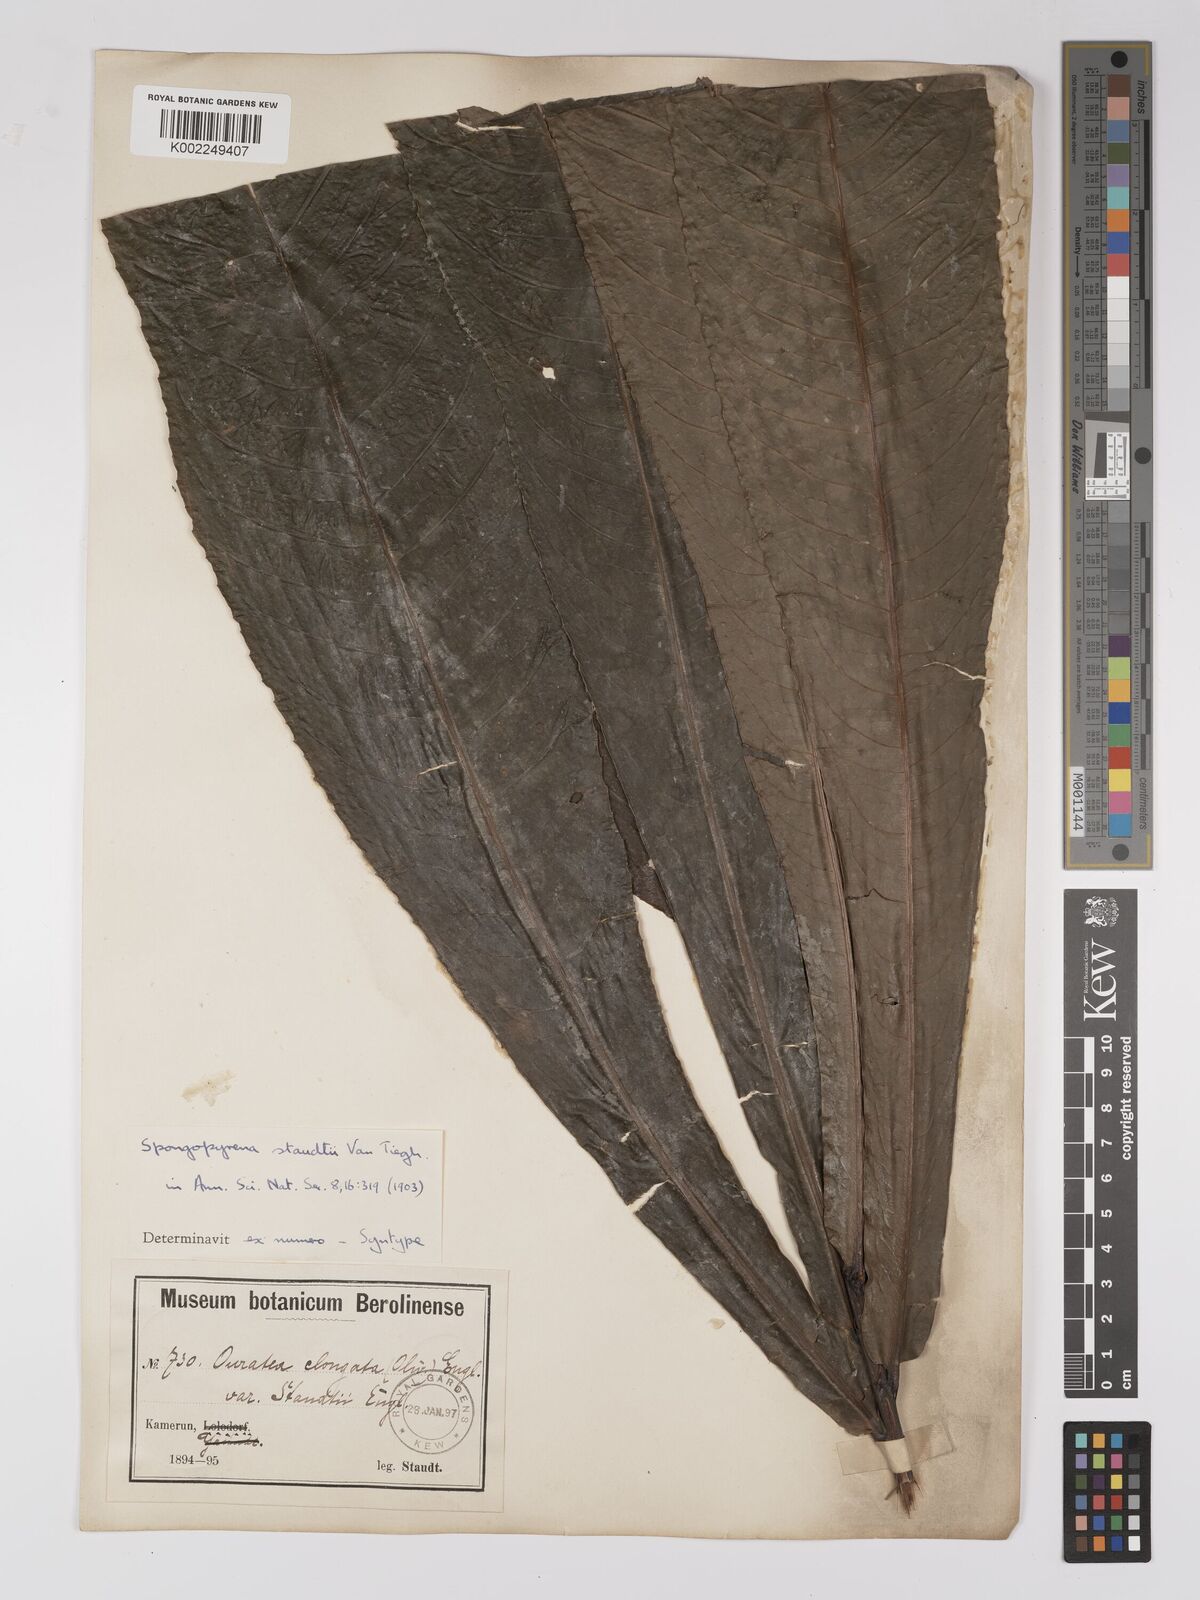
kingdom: Plantae
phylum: Tracheophyta
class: Magnoliopsida
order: Malpighiales
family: Ochnaceae
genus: Gomphia
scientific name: Gomphia elongata
